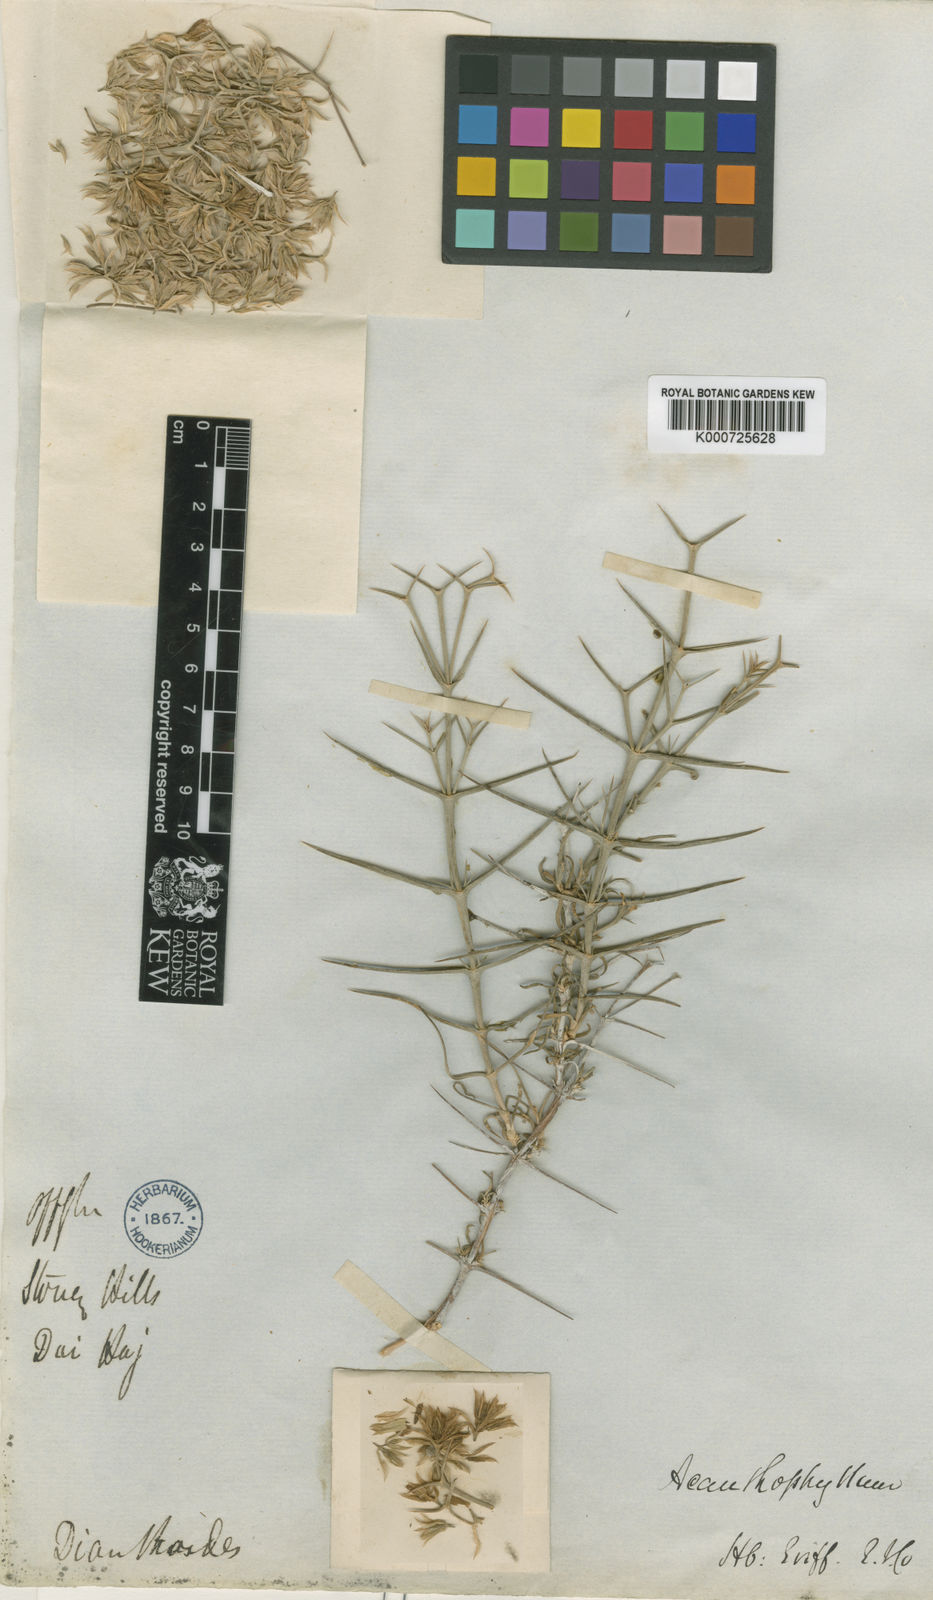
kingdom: Plantae
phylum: Tracheophyta
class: Magnoliopsida
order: Caryophyllales
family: Caryophyllaceae
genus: Acanthophyllum
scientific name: Acanthophyllum speciosum
